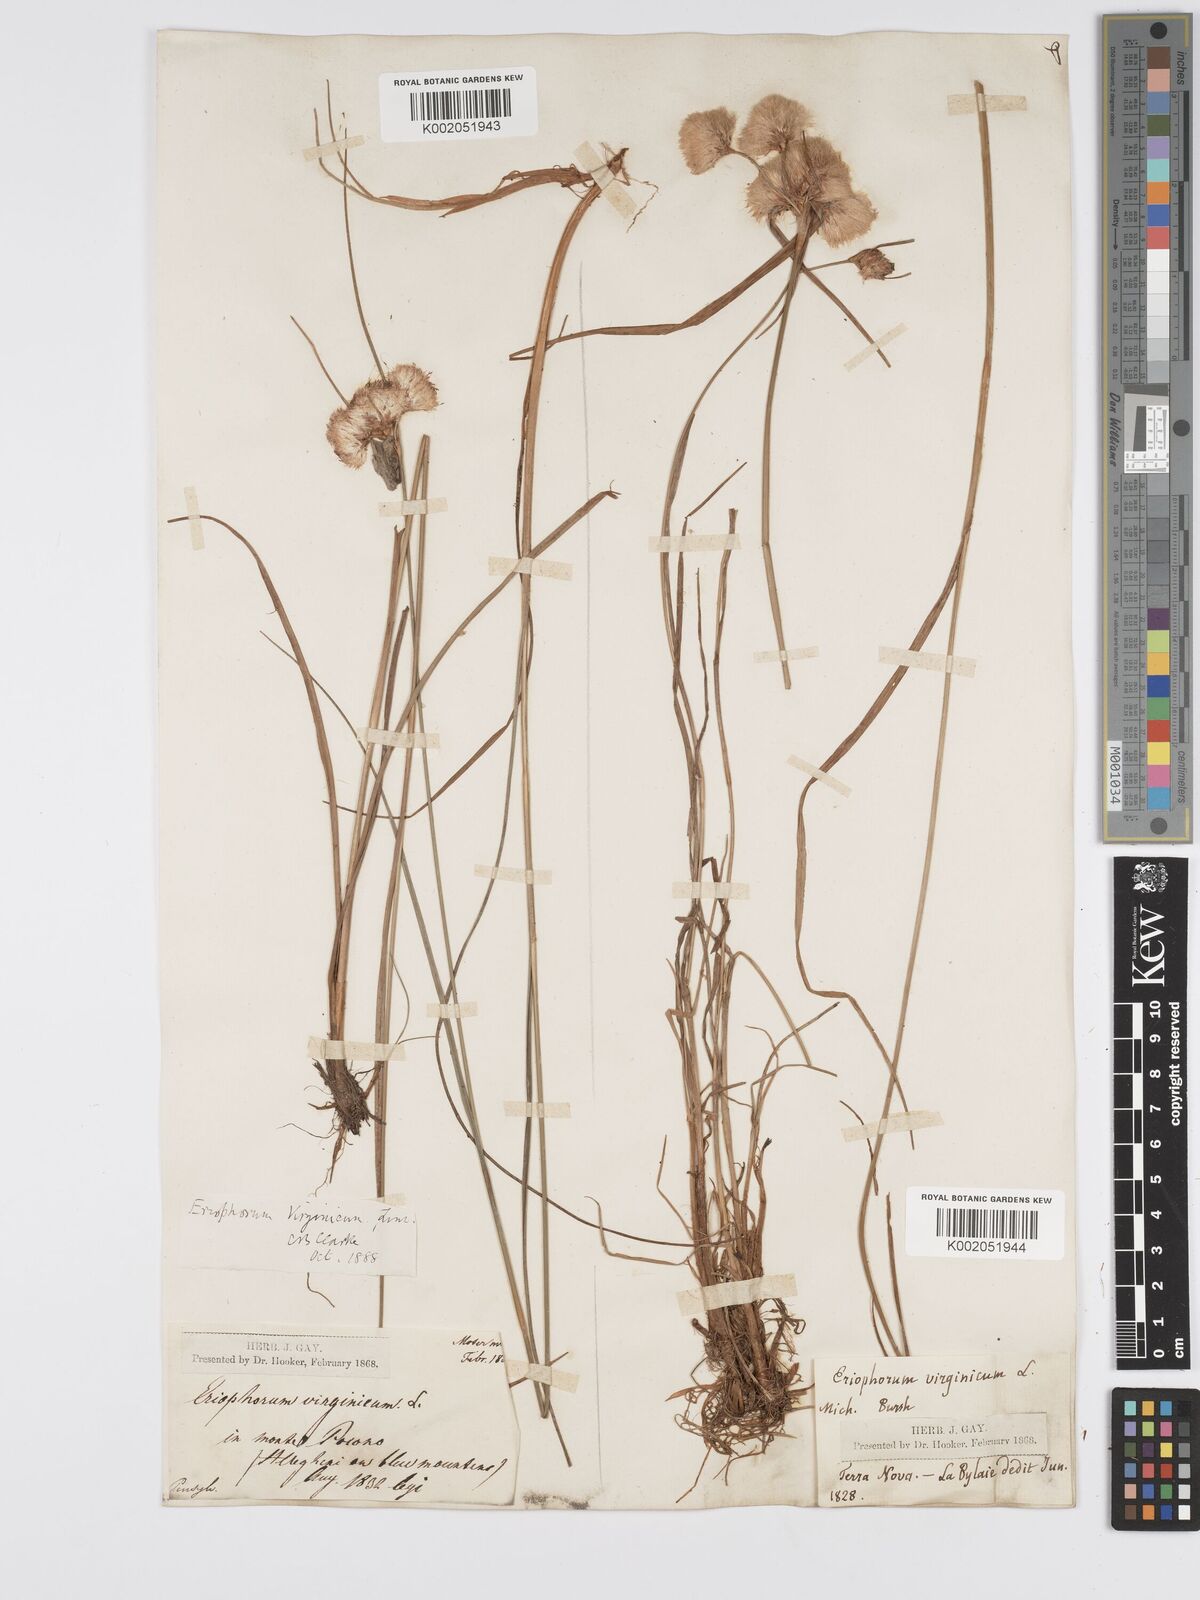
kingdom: Plantae
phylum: Tracheophyta
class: Liliopsida
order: Poales
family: Cyperaceae
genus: Eriophorum
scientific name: Eriophorum virginicum
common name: Tawny cottongrass
